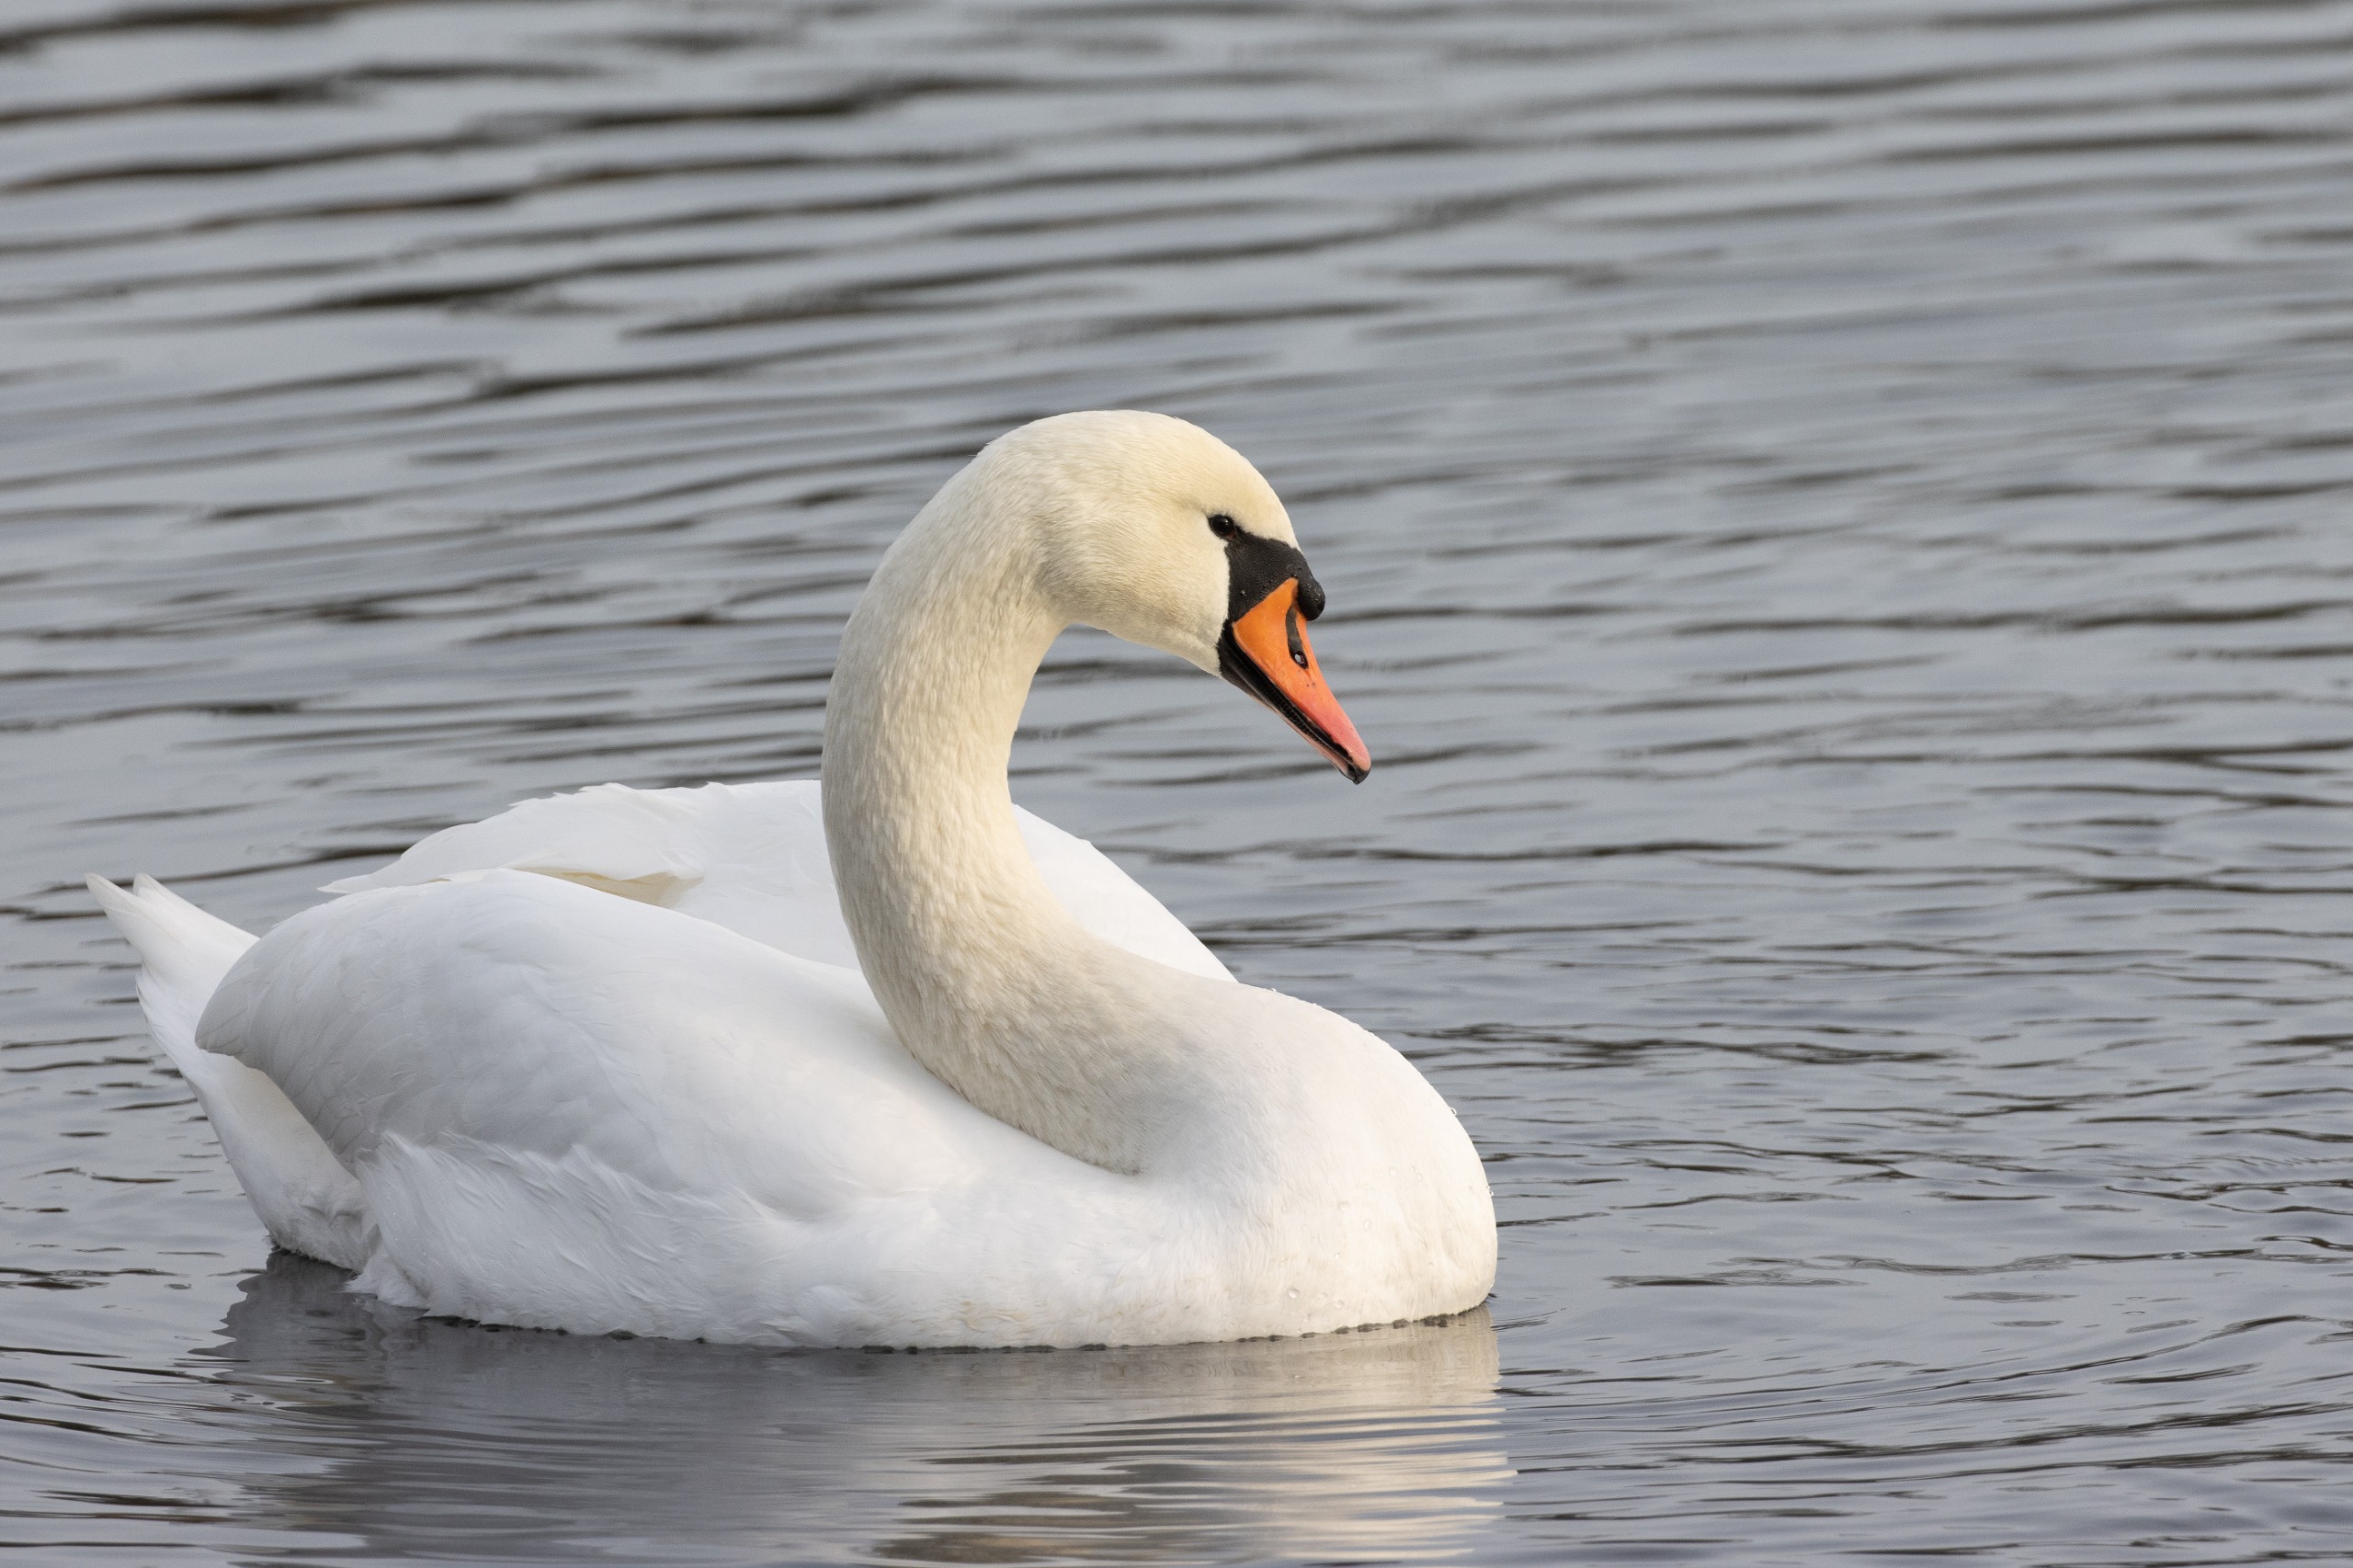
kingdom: Animalia
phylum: Chordata
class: Aves
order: Anseriformes
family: Anatidae
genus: Cygnus
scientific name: Cygnus olor
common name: Knopsvane
